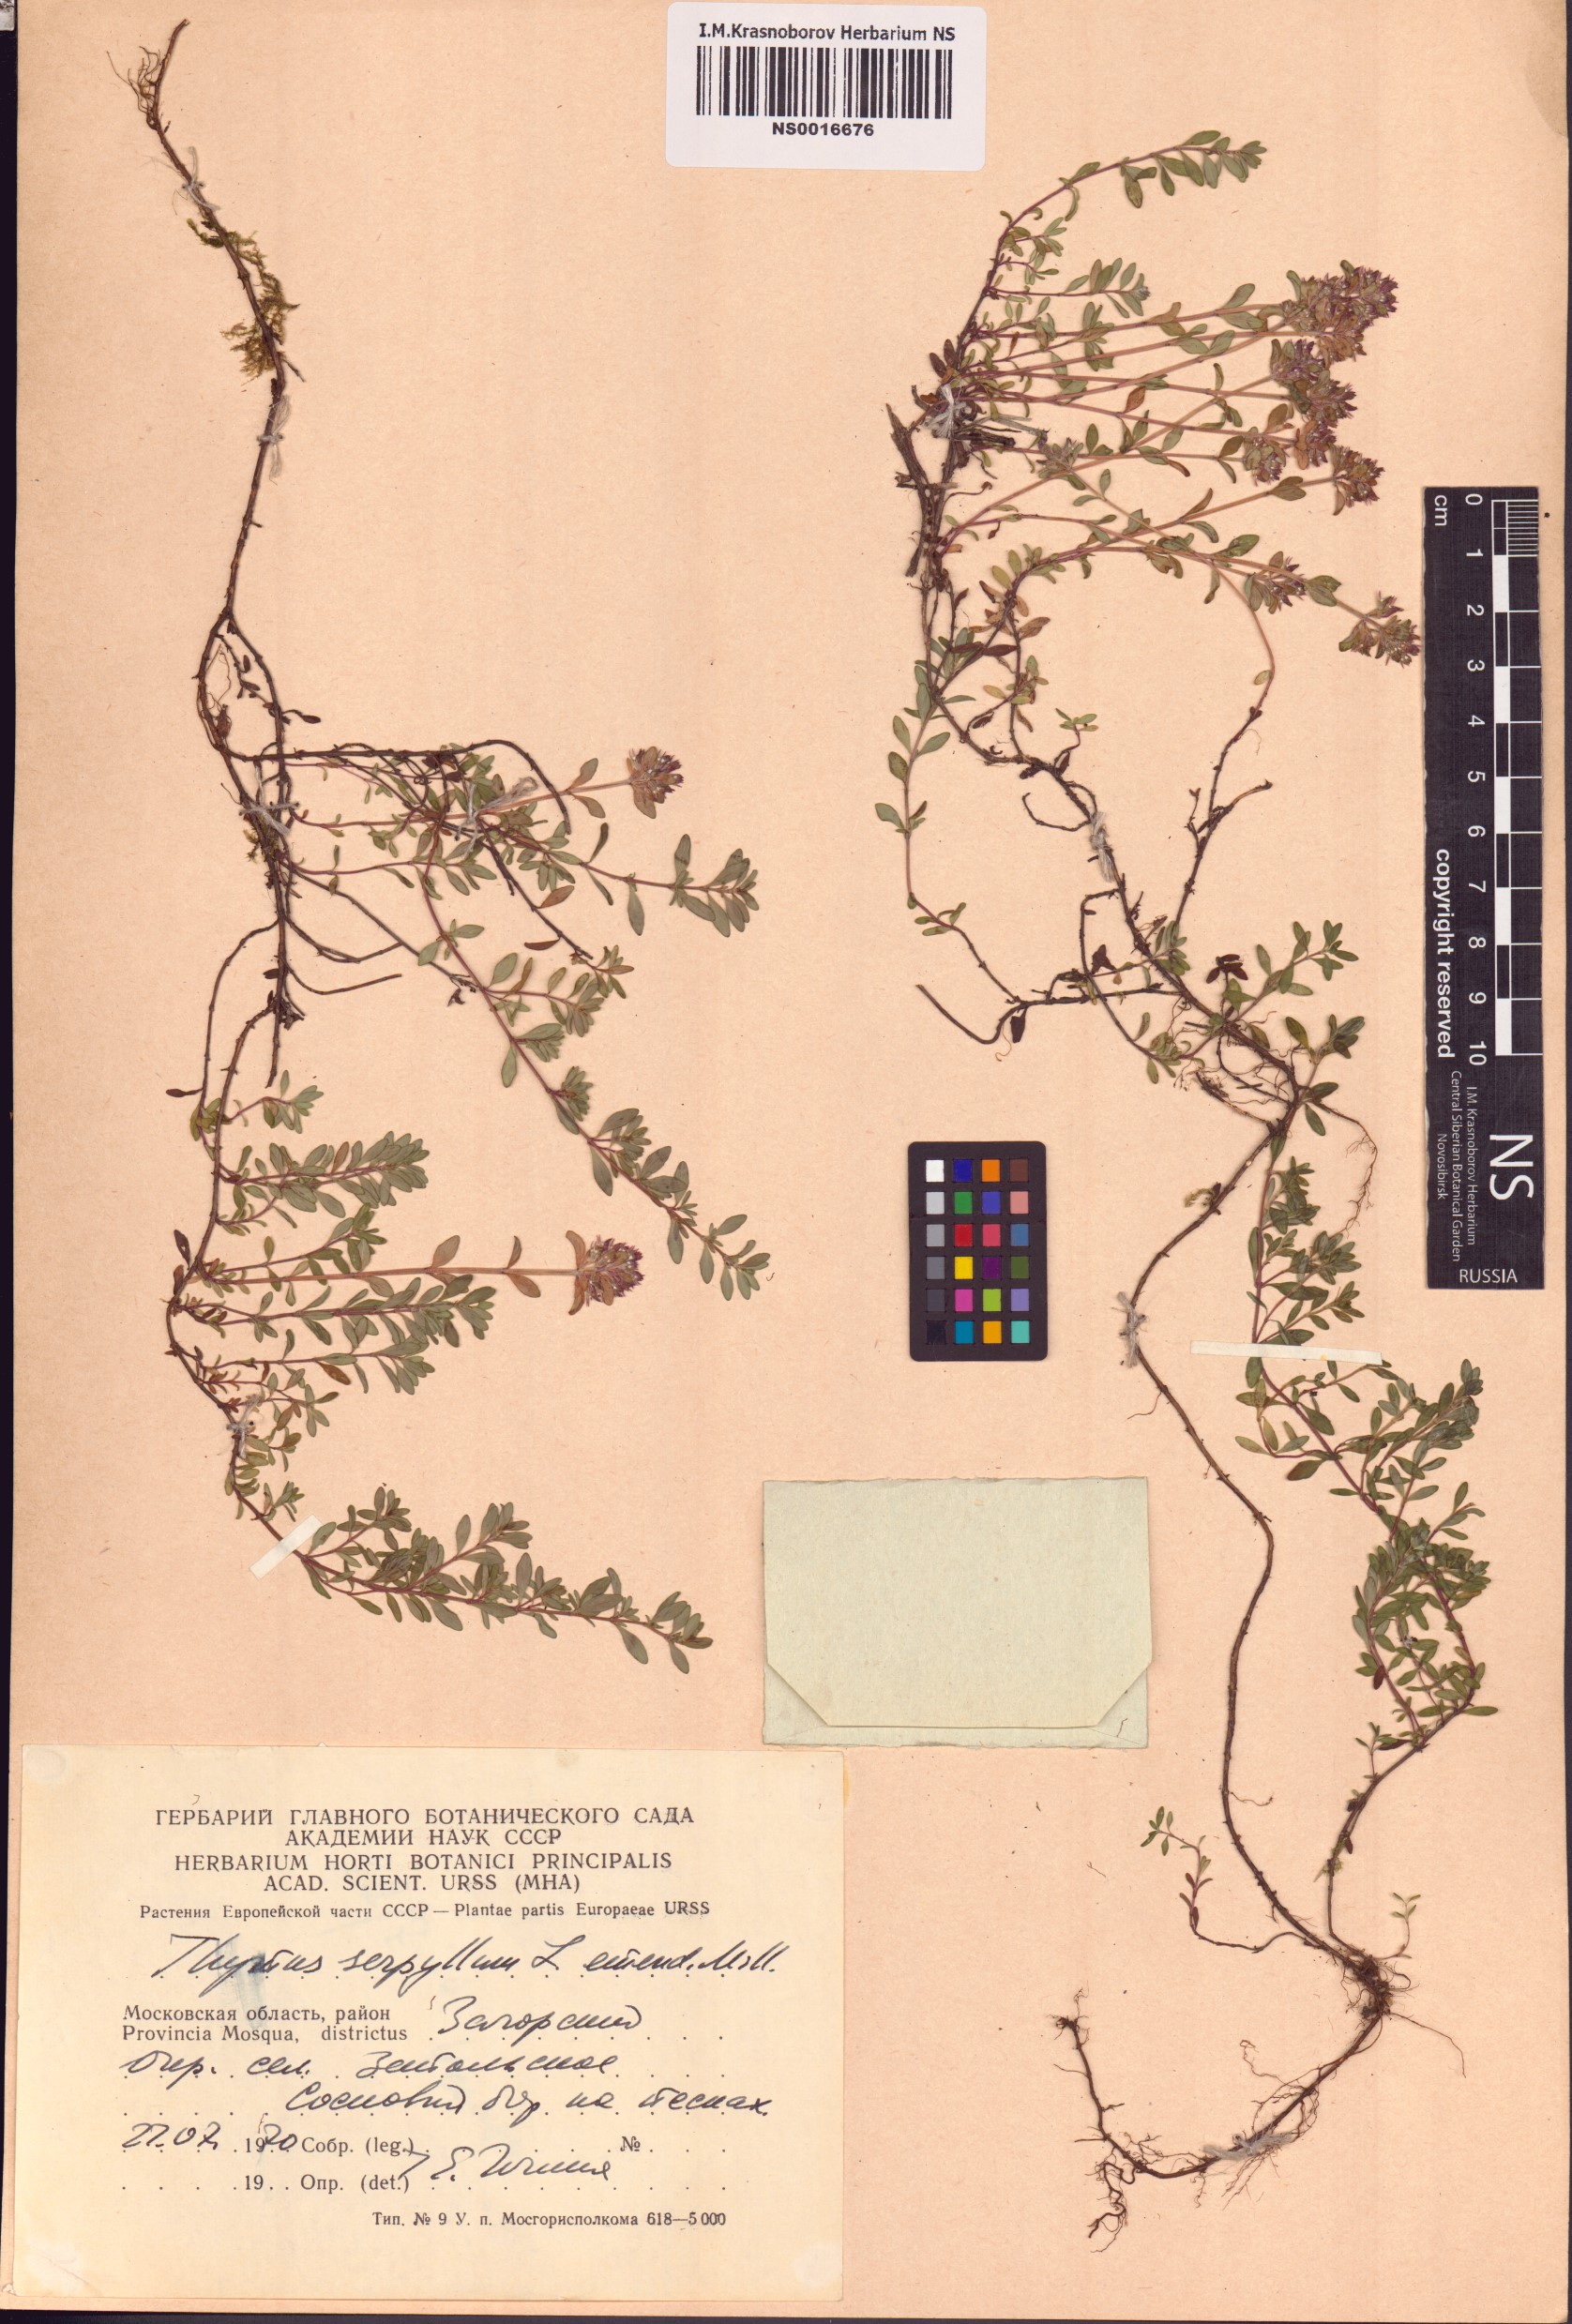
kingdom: Plantae
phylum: Tracheophyta
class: Magnoliopsida
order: Lamiales
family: Lamiaceae
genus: Thymus
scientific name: Thymus serpyllum
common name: Breckland thyme
